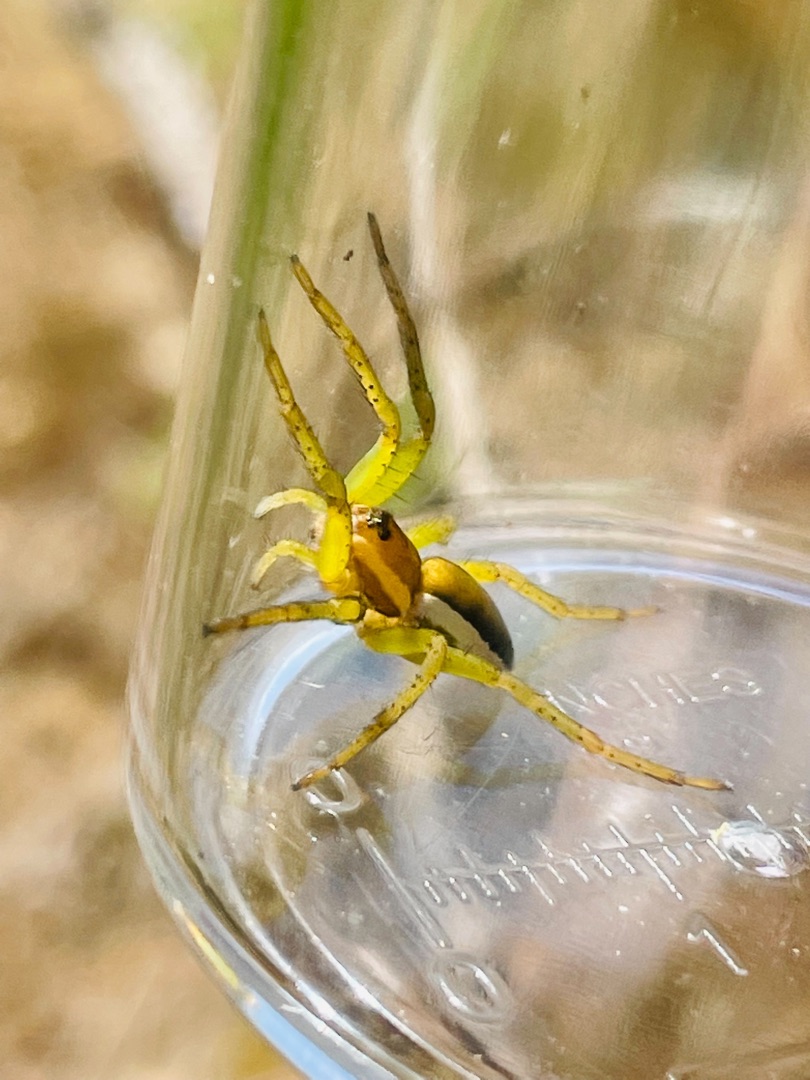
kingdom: Animalia
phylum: Arthropoda
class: Arachnida
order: Araneae
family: Pisauridae
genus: Dolomedes
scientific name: Dolomedes
